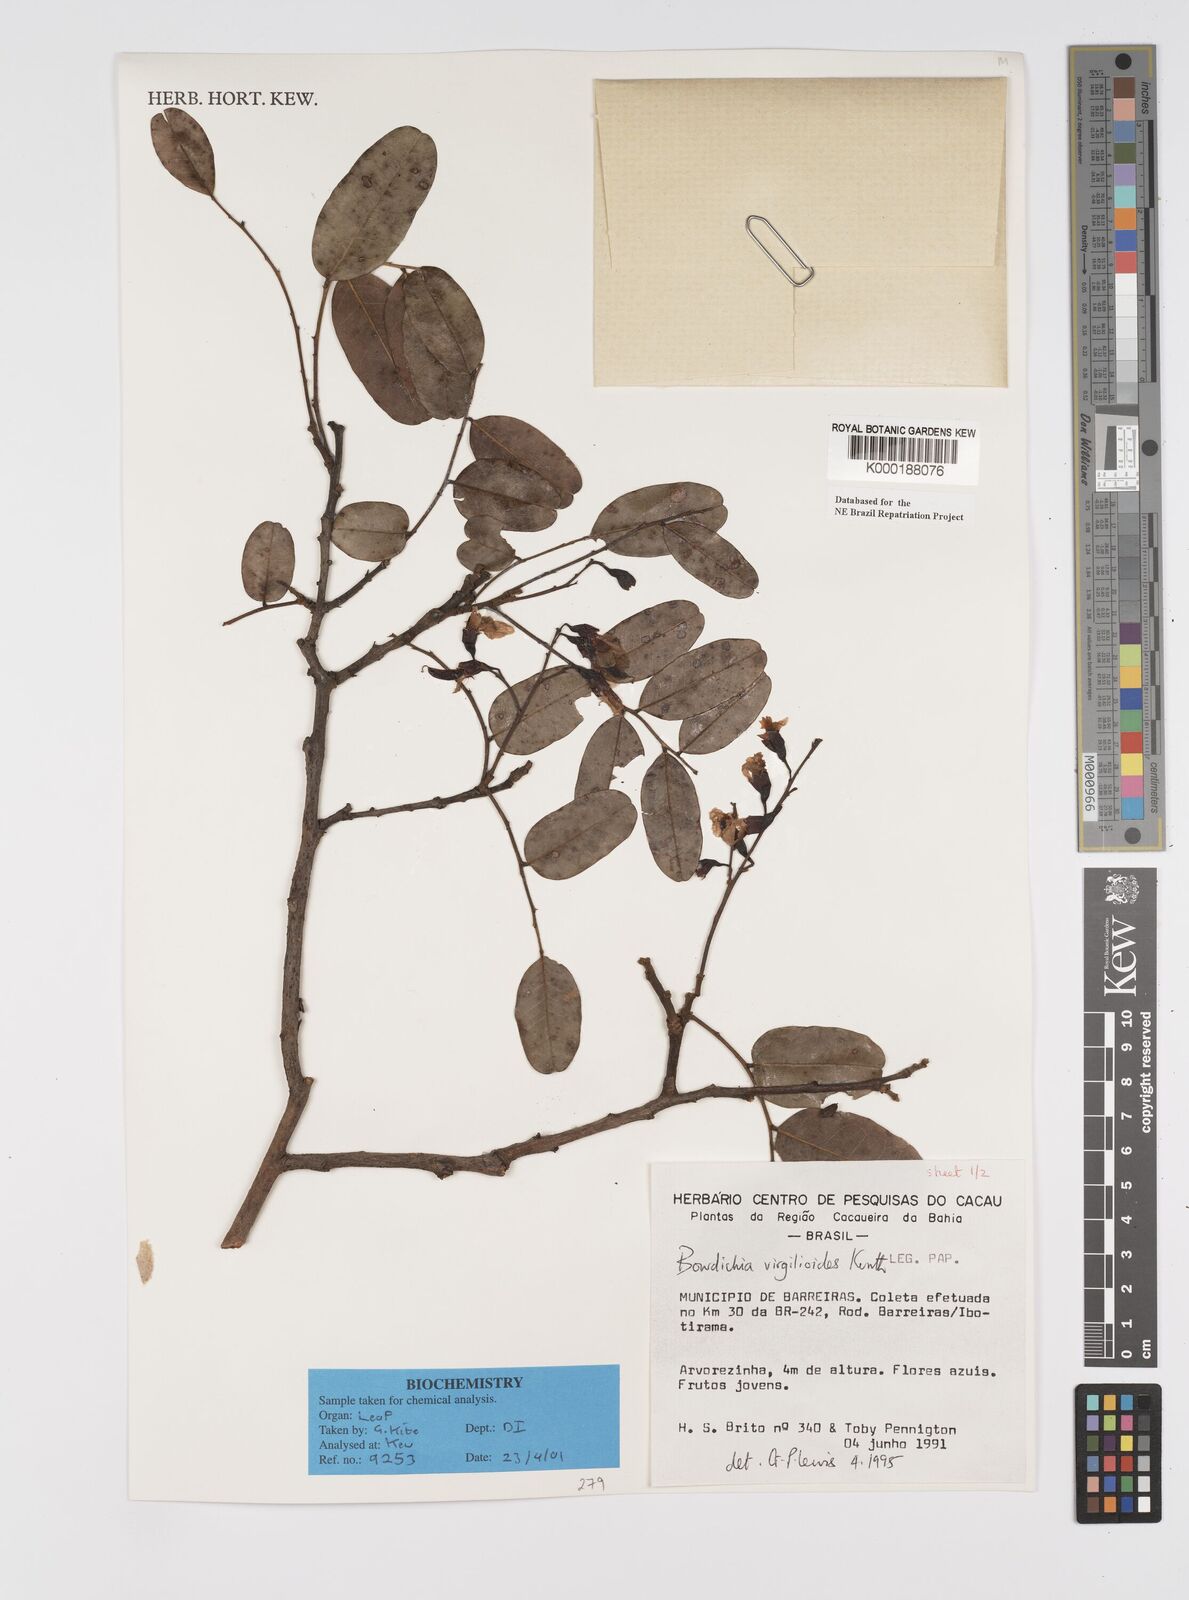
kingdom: Plantae
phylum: Tracheophyta
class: Magnoliopsida
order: Fabales
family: Fabaceae
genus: Bowdichia
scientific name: Bowdichia virgilioides
